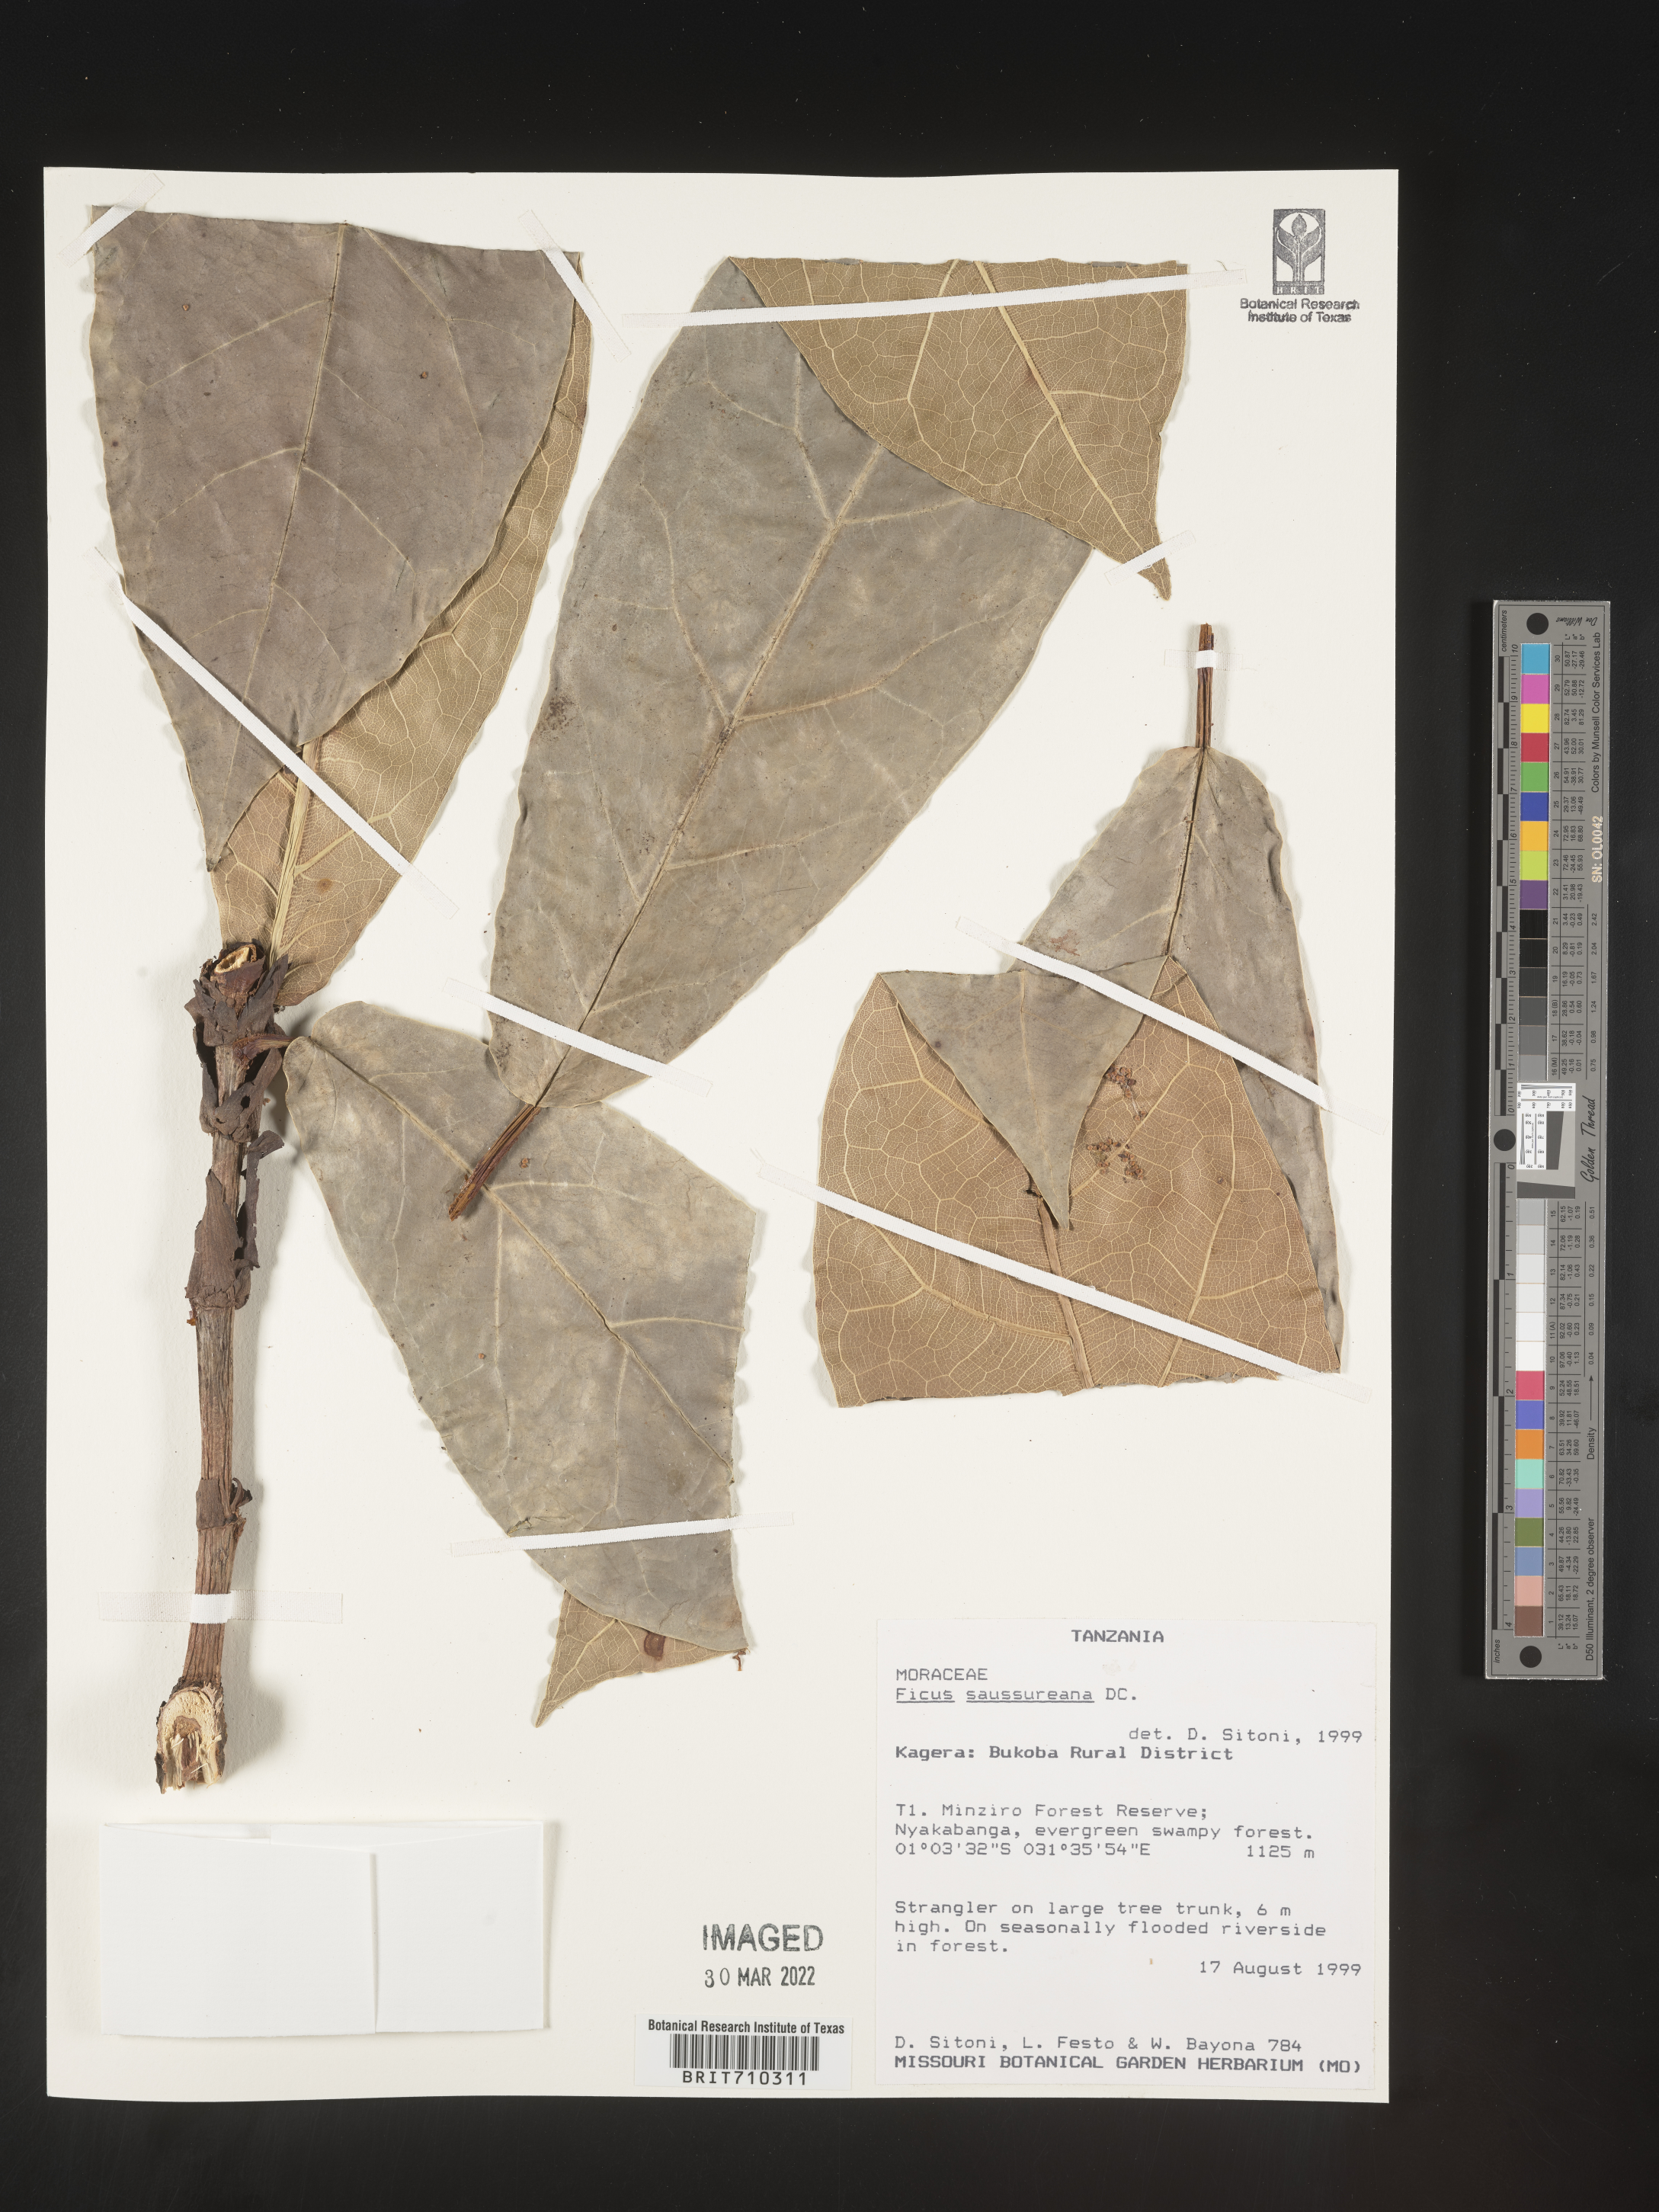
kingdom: Plantae
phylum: Tracheophyta
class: Magnoliopsida
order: Rosales
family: Moraceae
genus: Ficus
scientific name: Ficus
